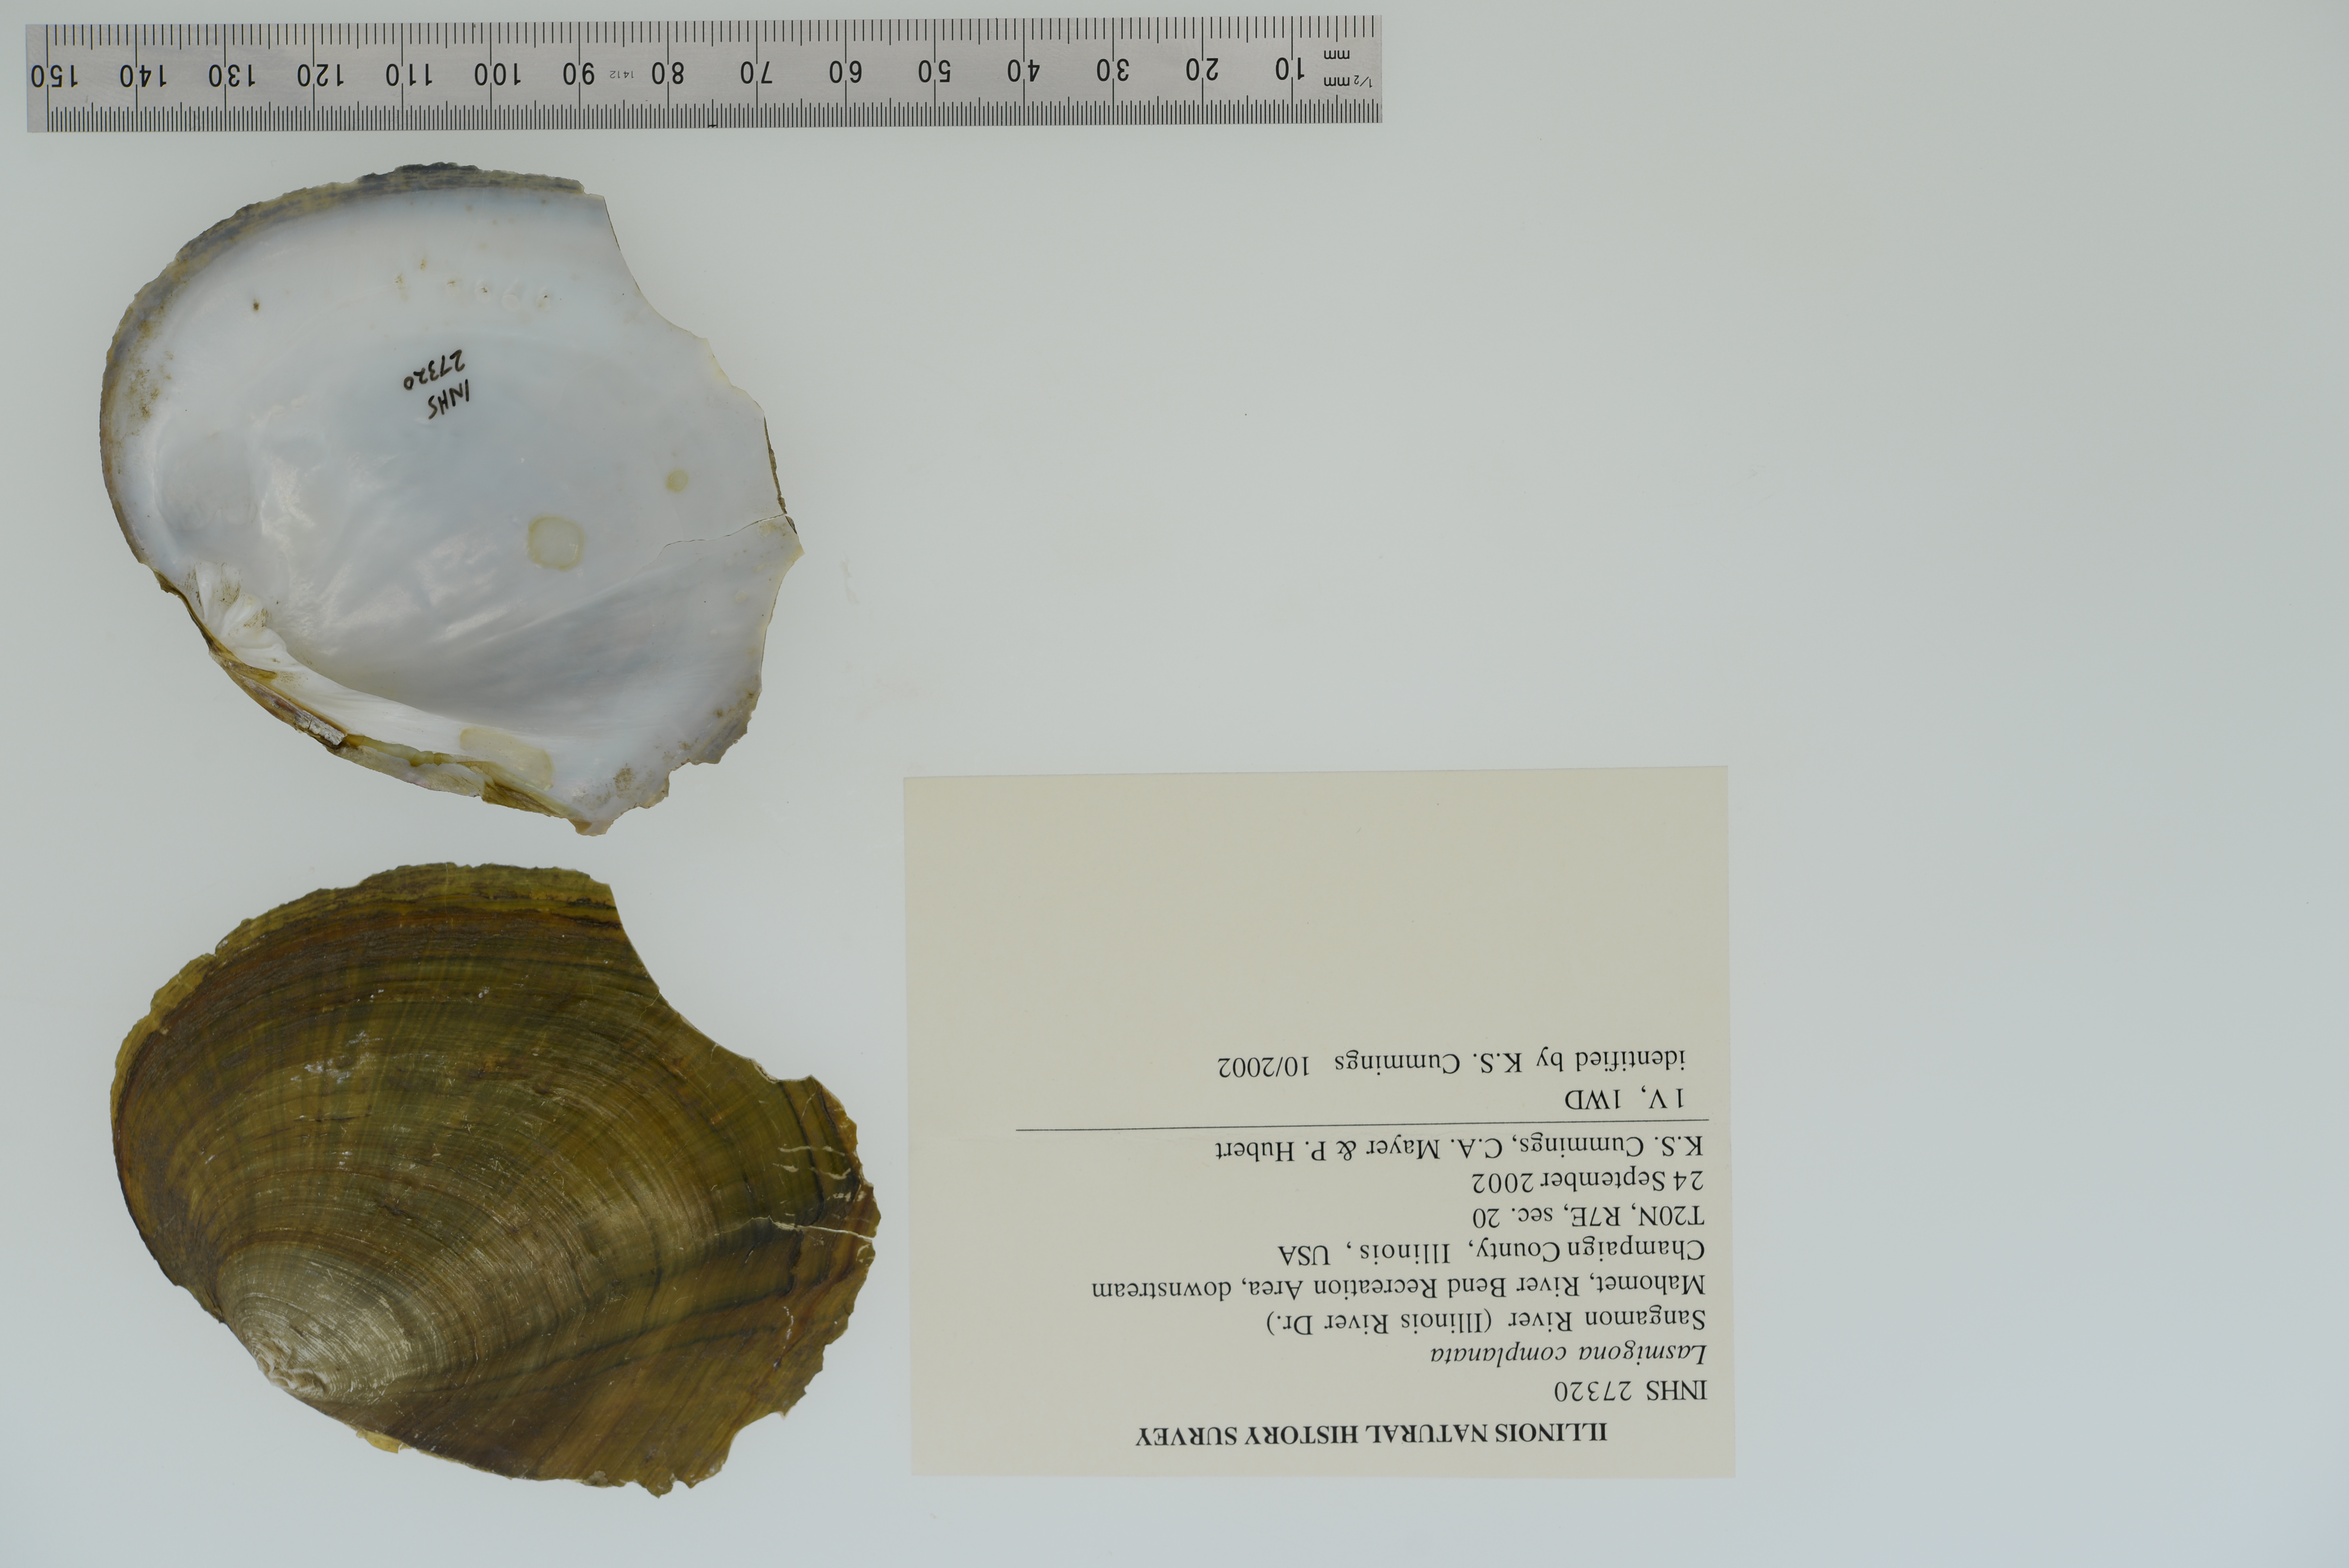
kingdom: Animalia
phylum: Mollusca
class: Bivalvia
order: Unionida
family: Unionidae
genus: Lasmigona
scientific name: Lasmigona complanata
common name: White heelsplitter
